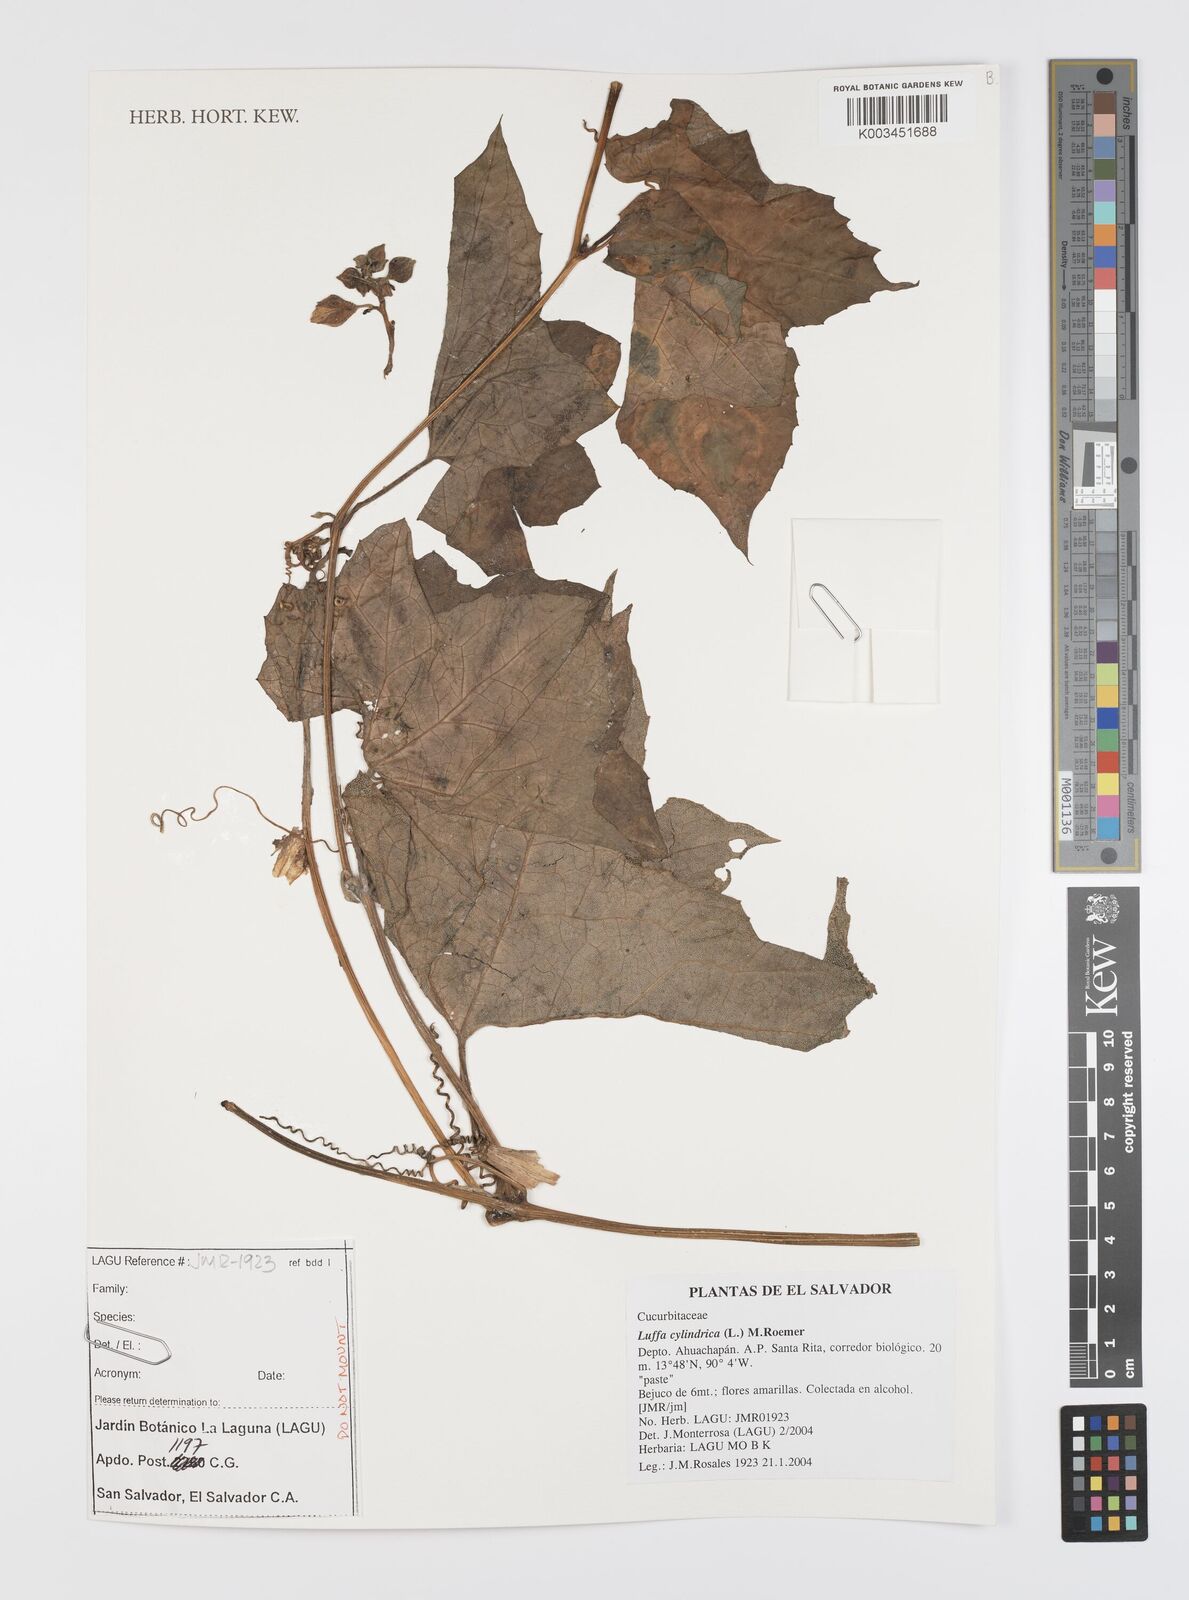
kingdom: Plantae
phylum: Tracheophyta
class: Magnoliopsida
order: Cucurbitales
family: Cucurbitaceae
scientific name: Cucurbitaceae
